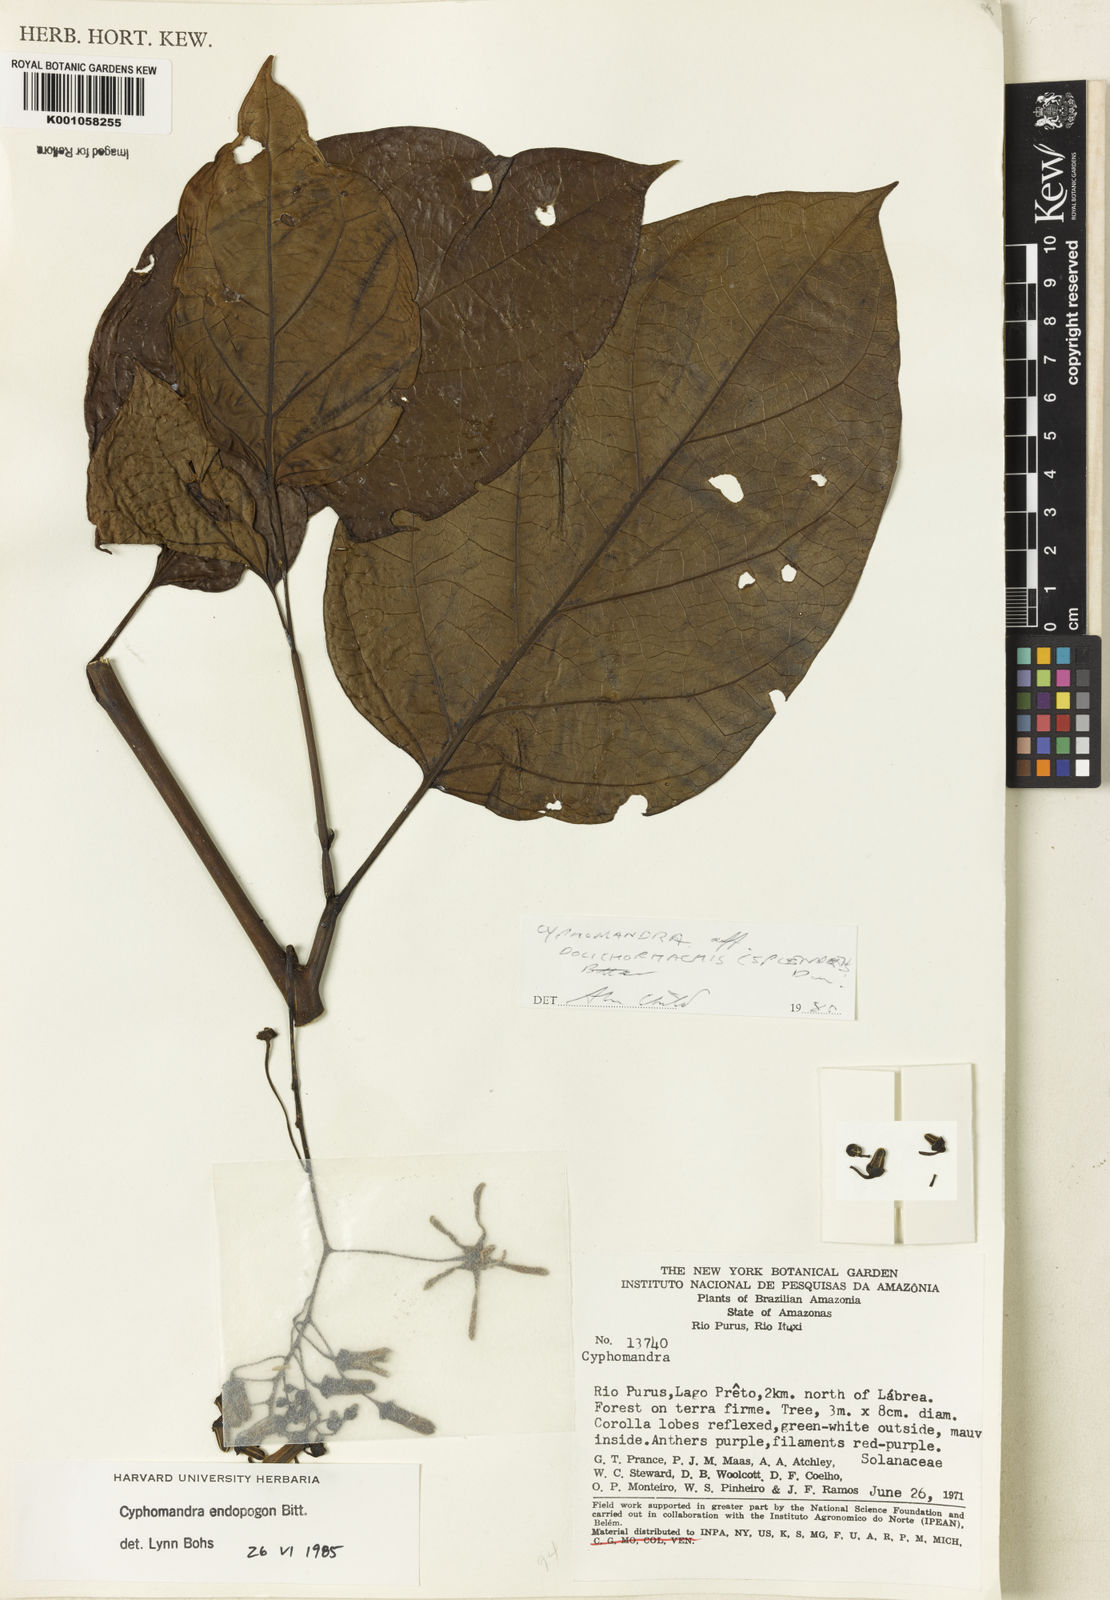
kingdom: Plantae
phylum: Tracheophyta
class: Magnoliopsida
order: Solanales
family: Solanaceae
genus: Solanum
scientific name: Solanum endopogon
